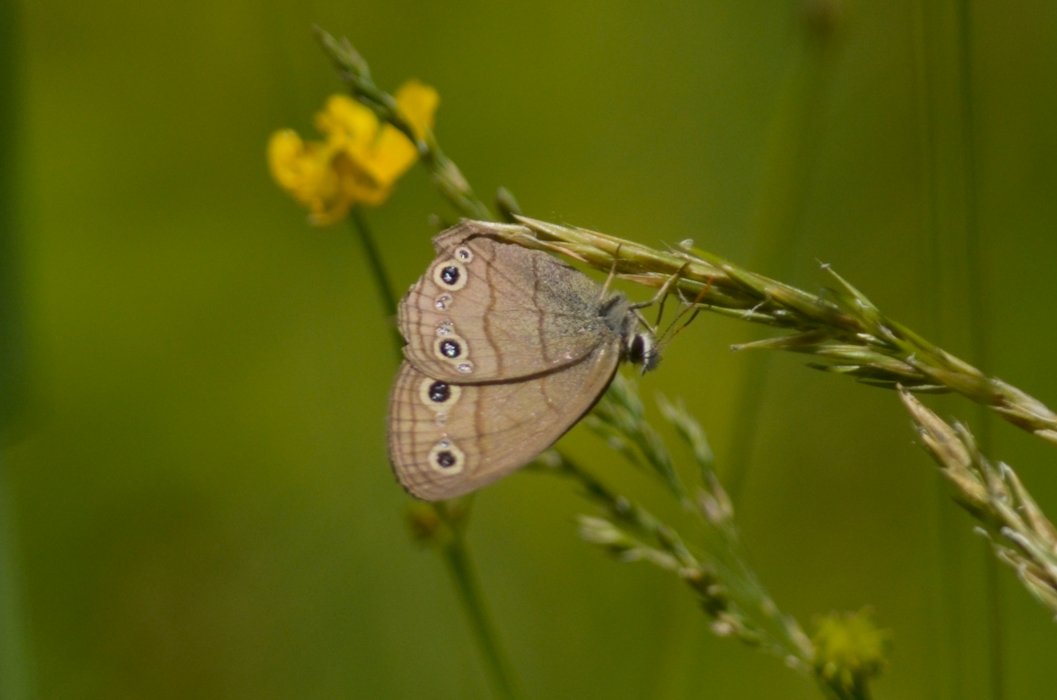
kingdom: Animalia
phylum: Arthropoda
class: Insecta
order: Lepidoptera
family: Nymphalidae
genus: Euptychia
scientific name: Euptychia cymela
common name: Little Wood Satyr
